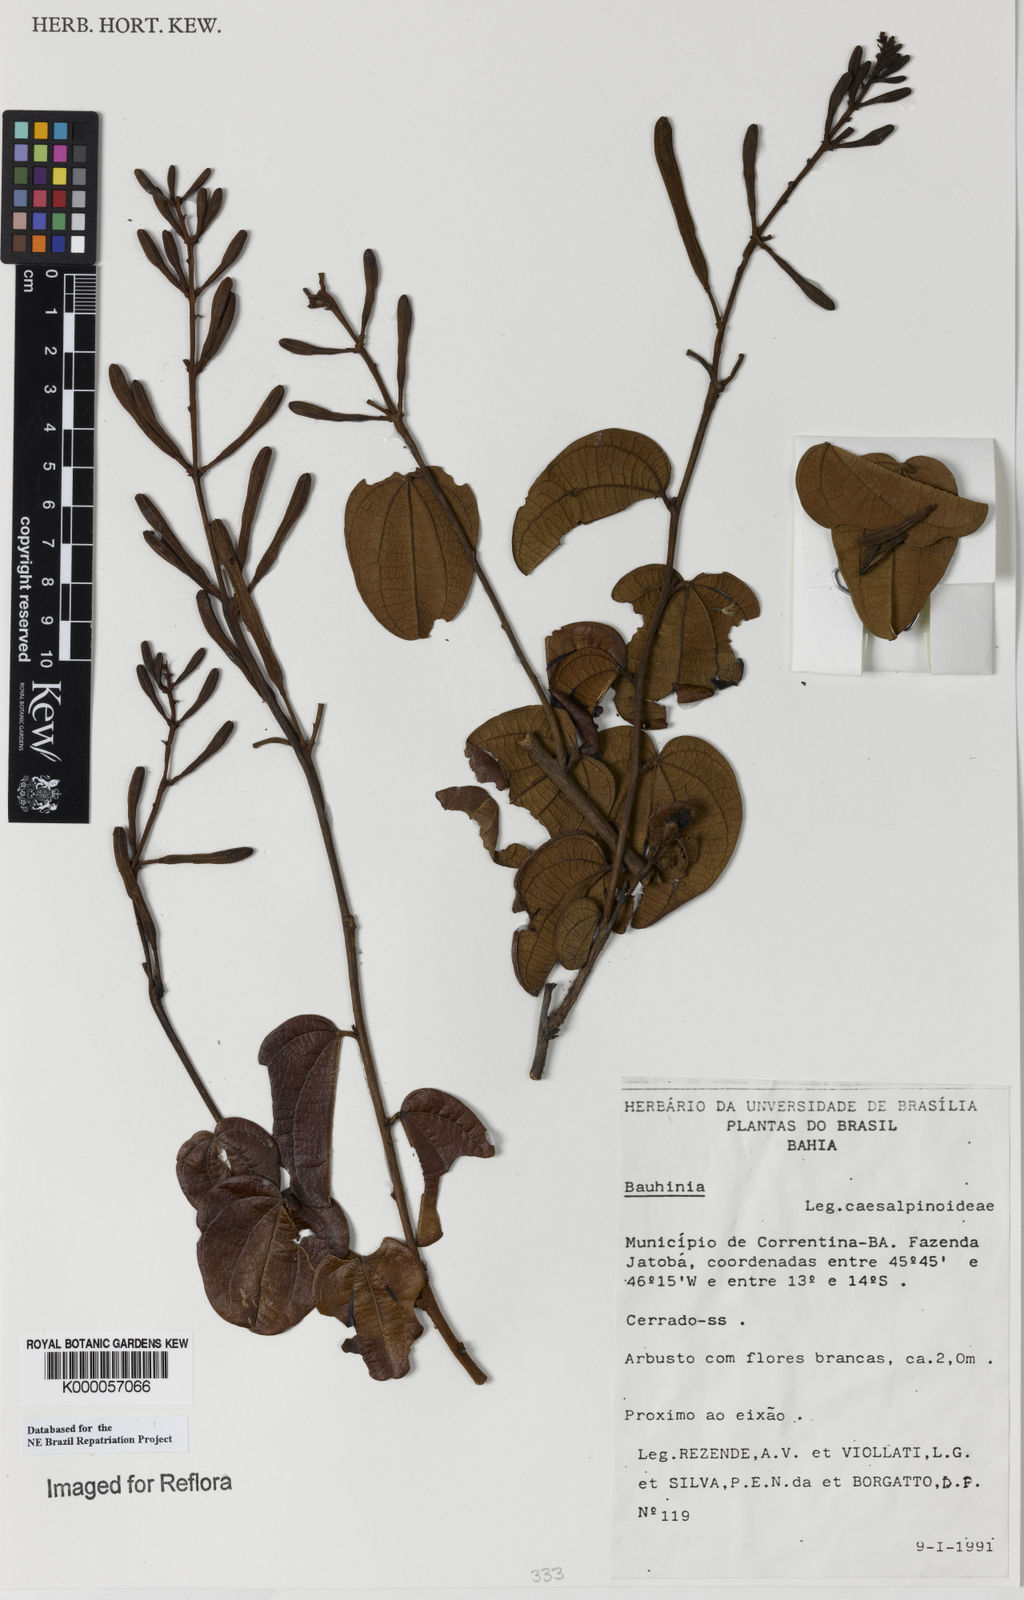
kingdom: Plantae
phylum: Tracheophyta
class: Magnoliopsida
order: Fabales
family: Fabaceae
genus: Bauhinia
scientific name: Bauhinia
